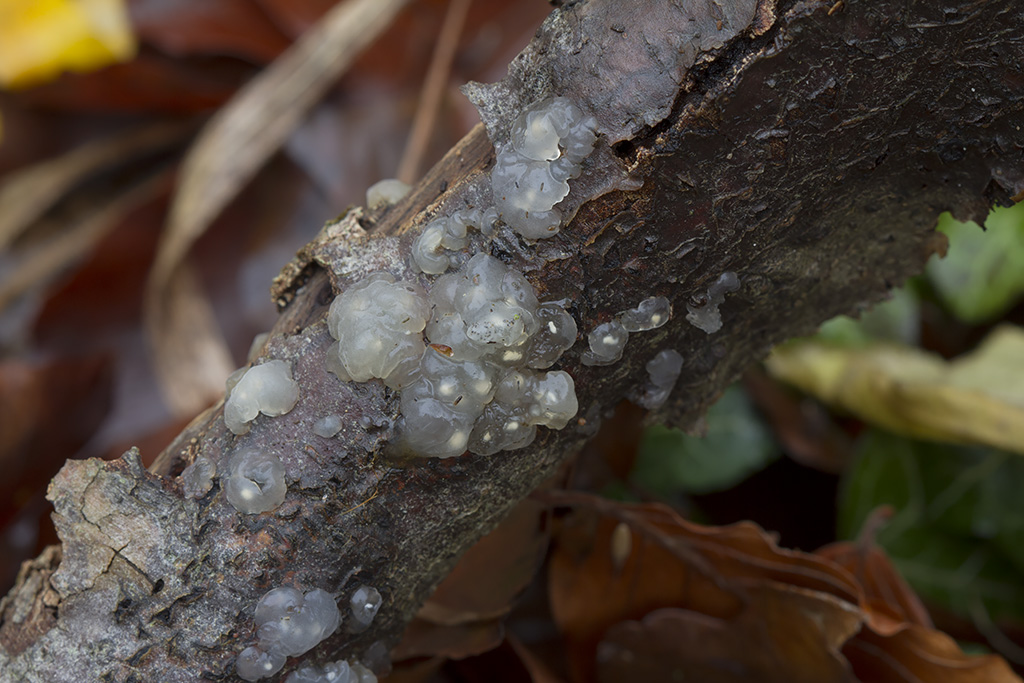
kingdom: Fungi
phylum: Basidiomycota
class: Agaricomycetes
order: Auriculariales
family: Hyaloriaceae
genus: Myxarium
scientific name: Myxarium nucleatum
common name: klar bævretop
